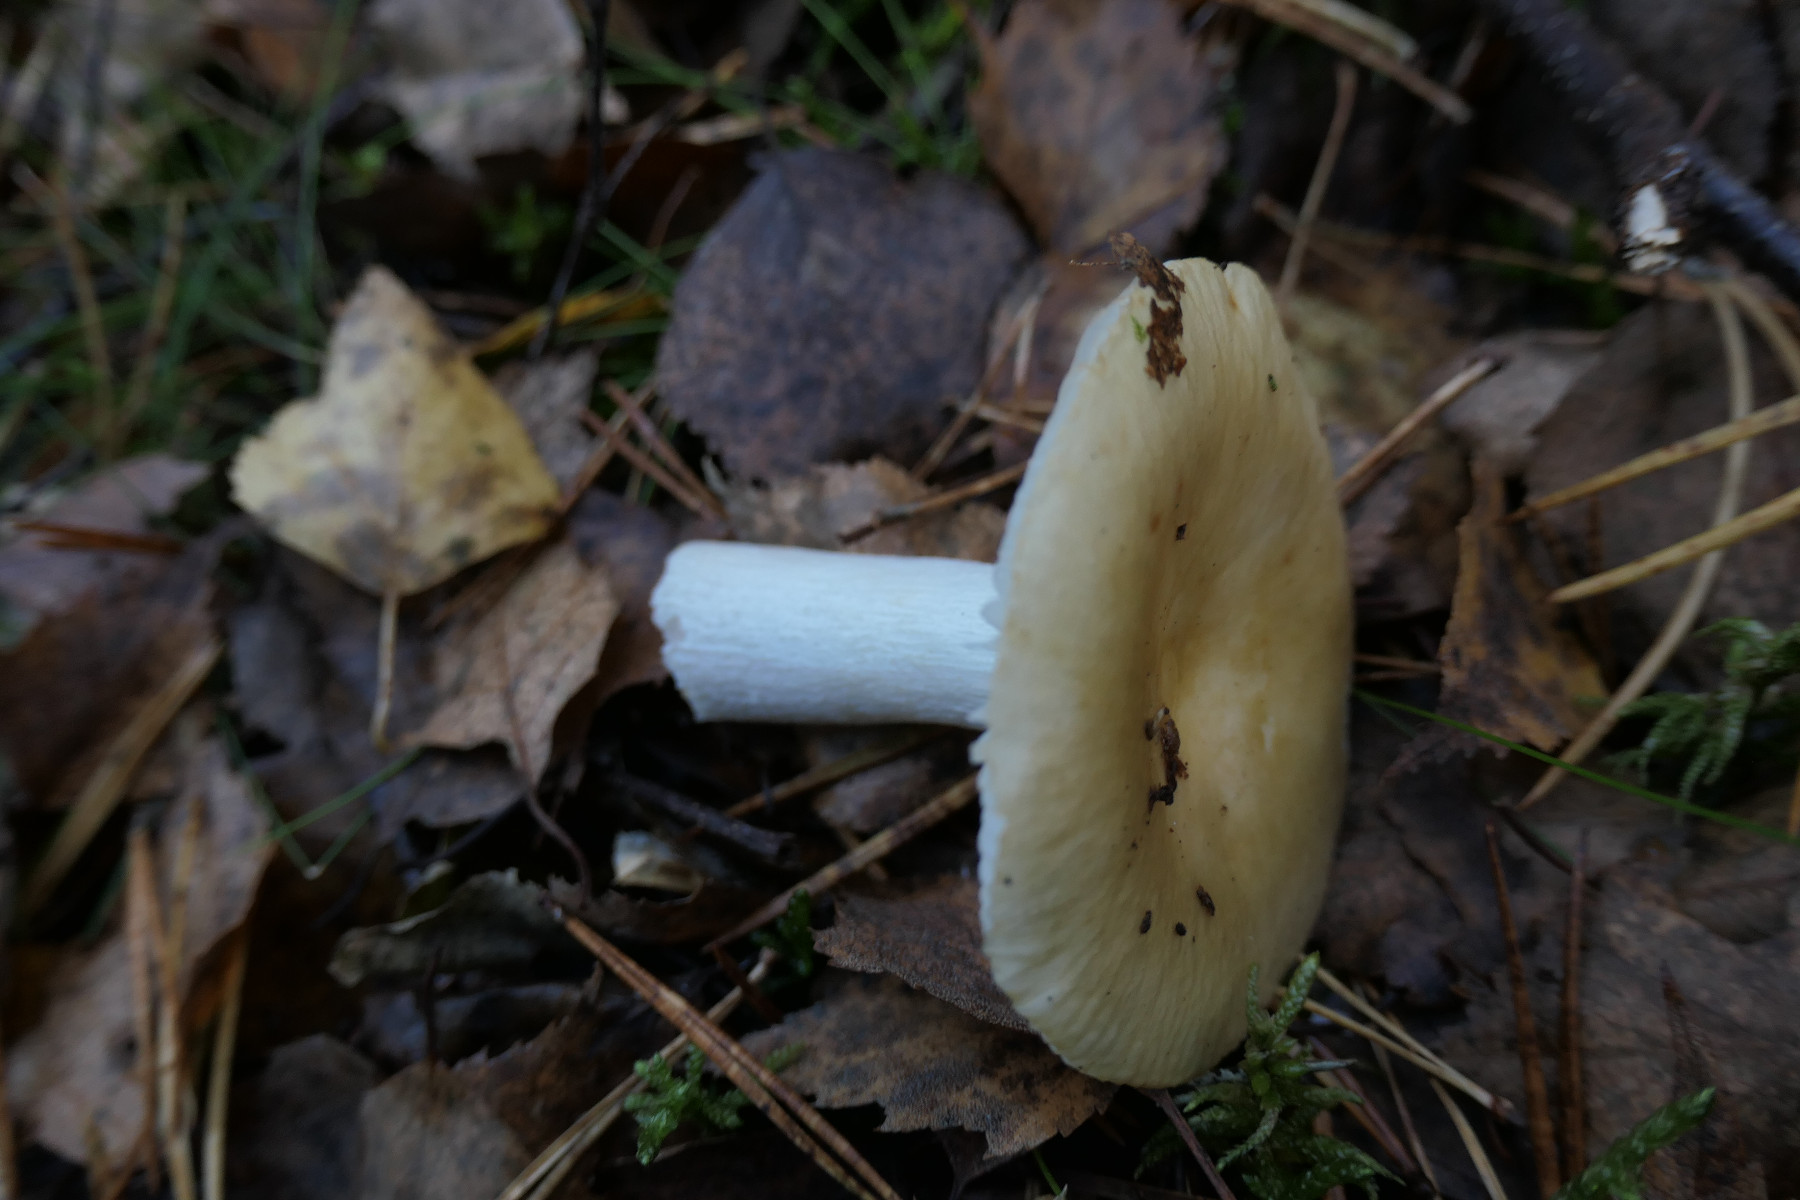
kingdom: Fungi
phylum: Basidiomycota
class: Agaricomycetes
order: Russulales
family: Russulaceae
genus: Russula
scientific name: Russula claroflava
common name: birke-skørhat
